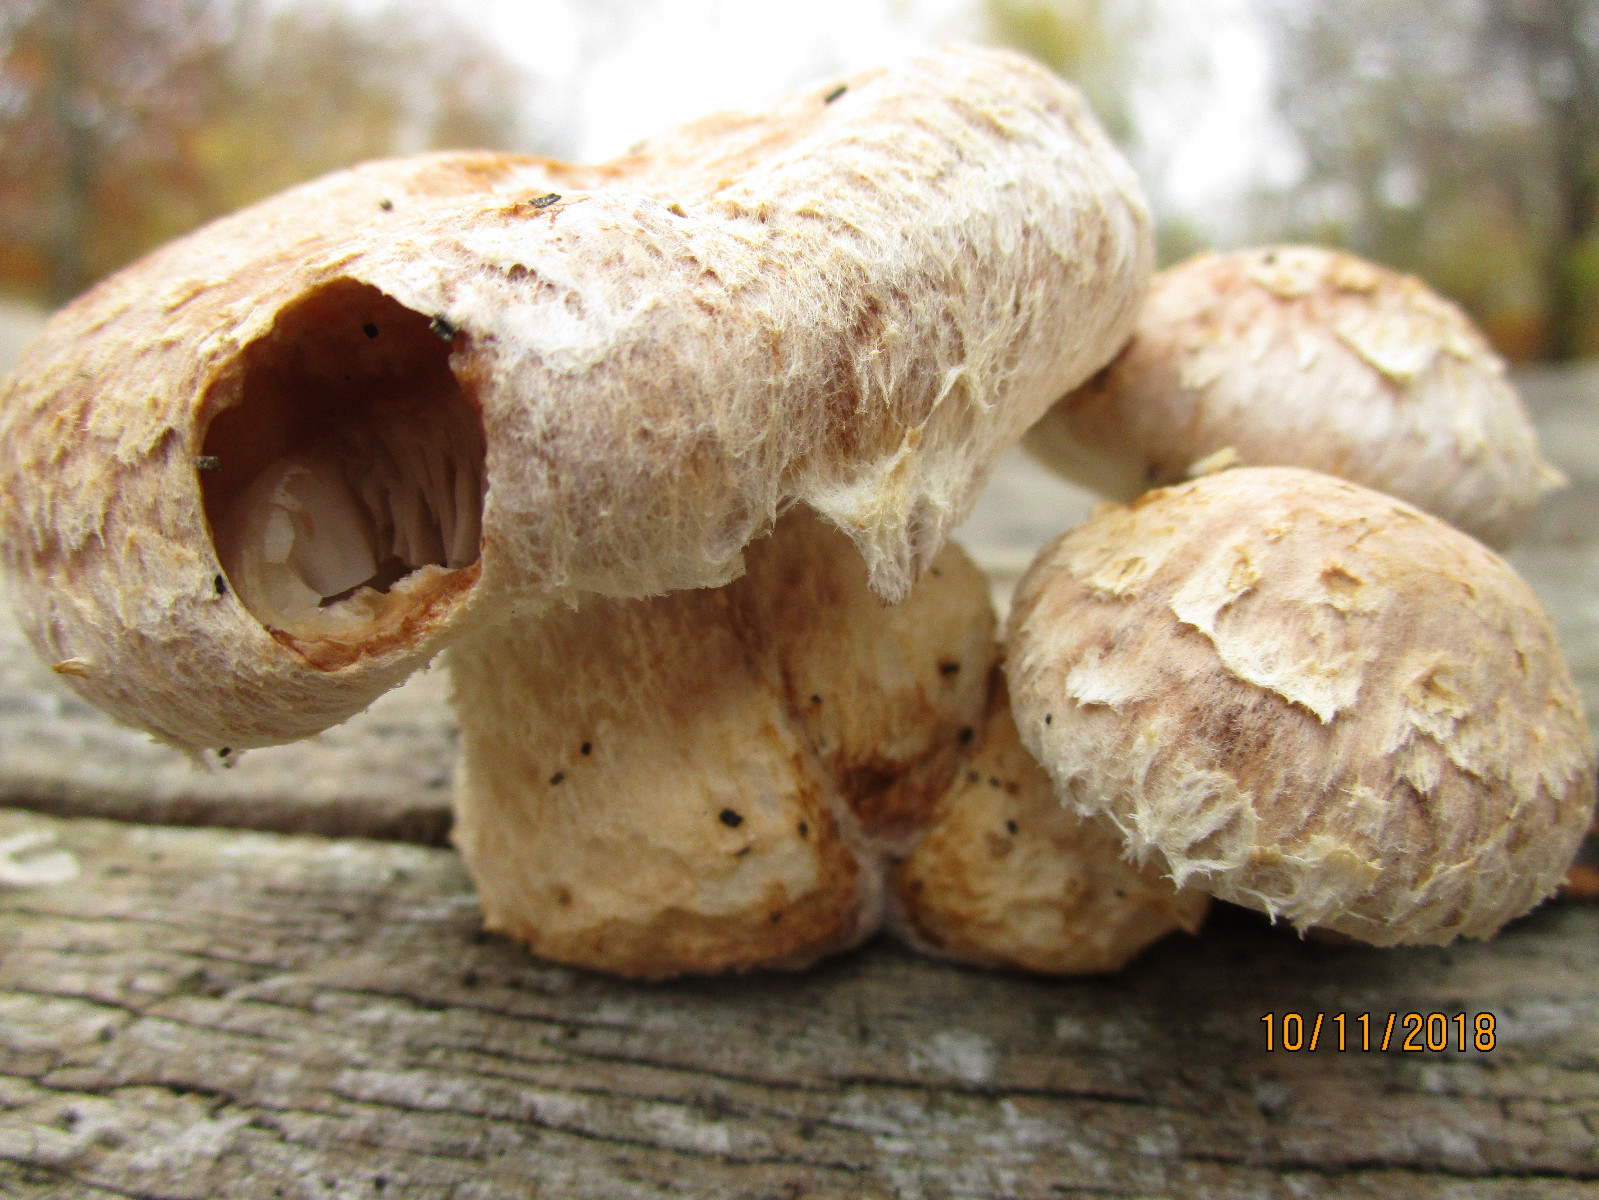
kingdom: Fungi
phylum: Basidiomycota
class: Agaricomycetes
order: Agaricales
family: Strophariaceae
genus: Pholiota
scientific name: Pholiota populnea
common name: poppel-kæmpeskælhat
